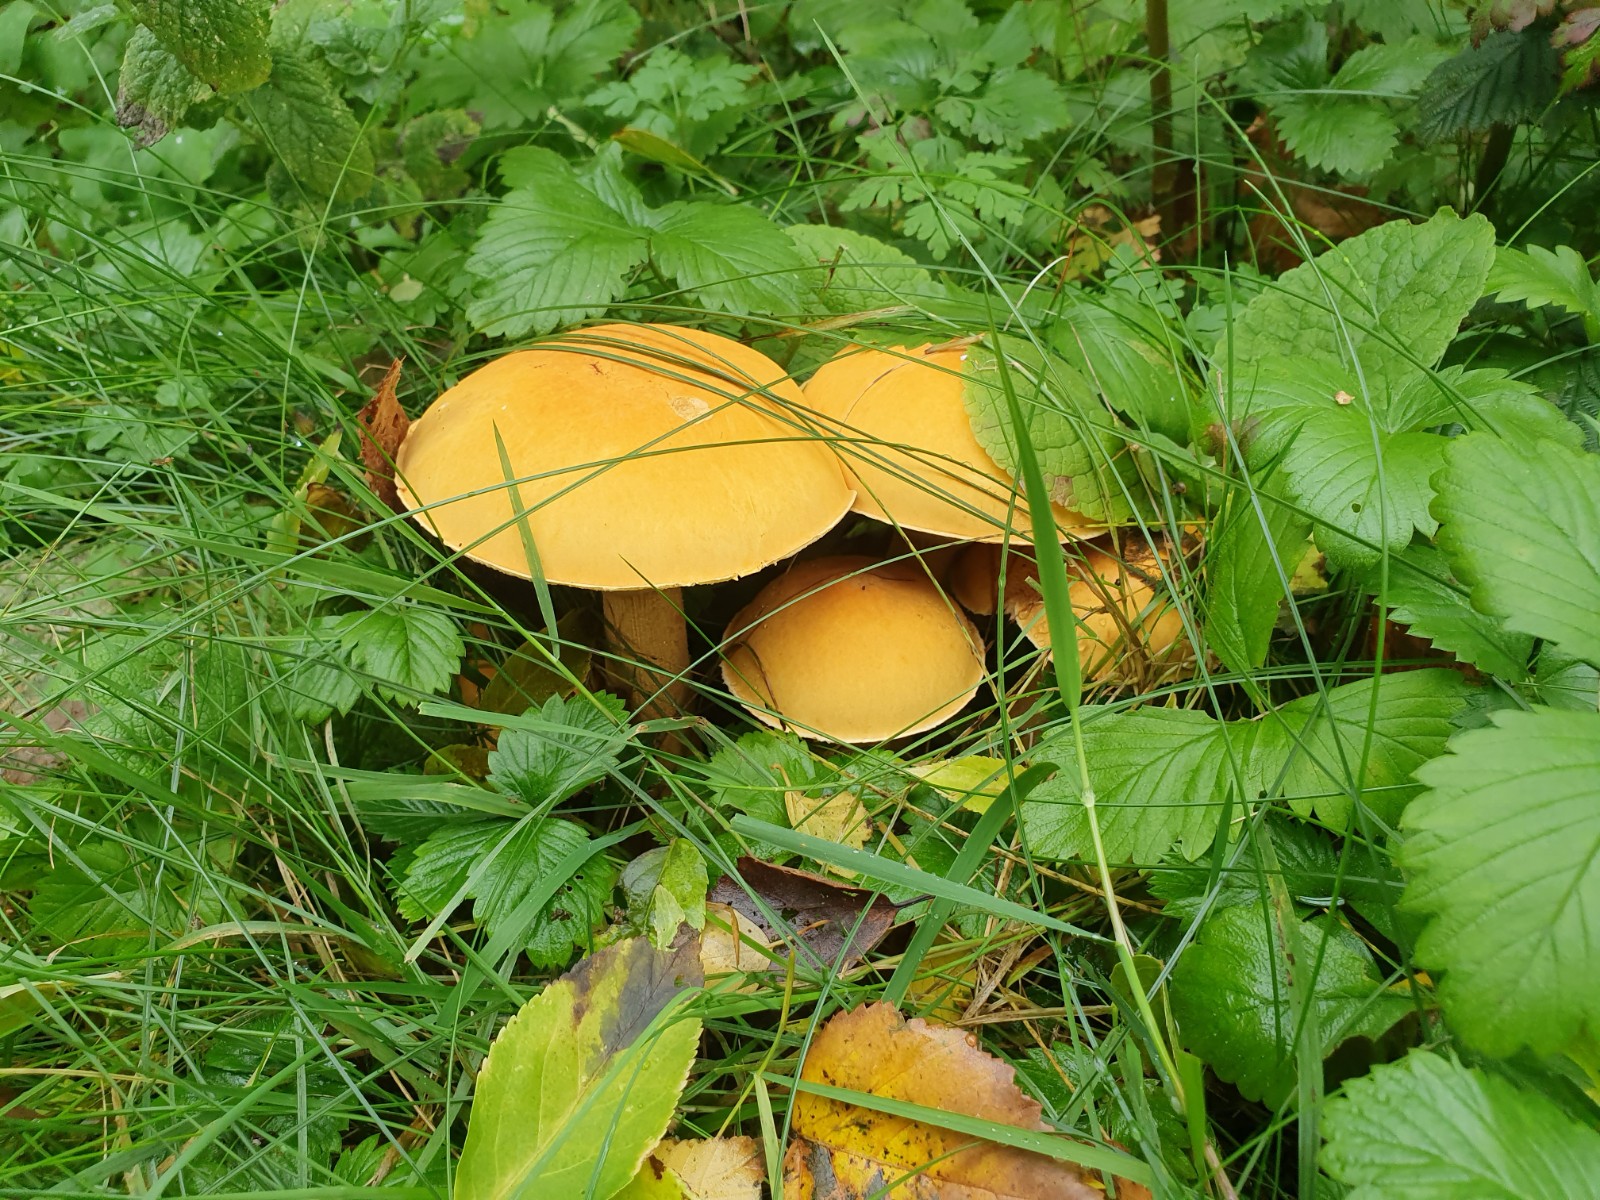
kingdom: Fungi
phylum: Basidiomycota
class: Agaricomycetes
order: Agaricales
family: Tricholomataceae
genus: Phaeolepiota
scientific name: Phaeolepiota aurea
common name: gyldenhat
